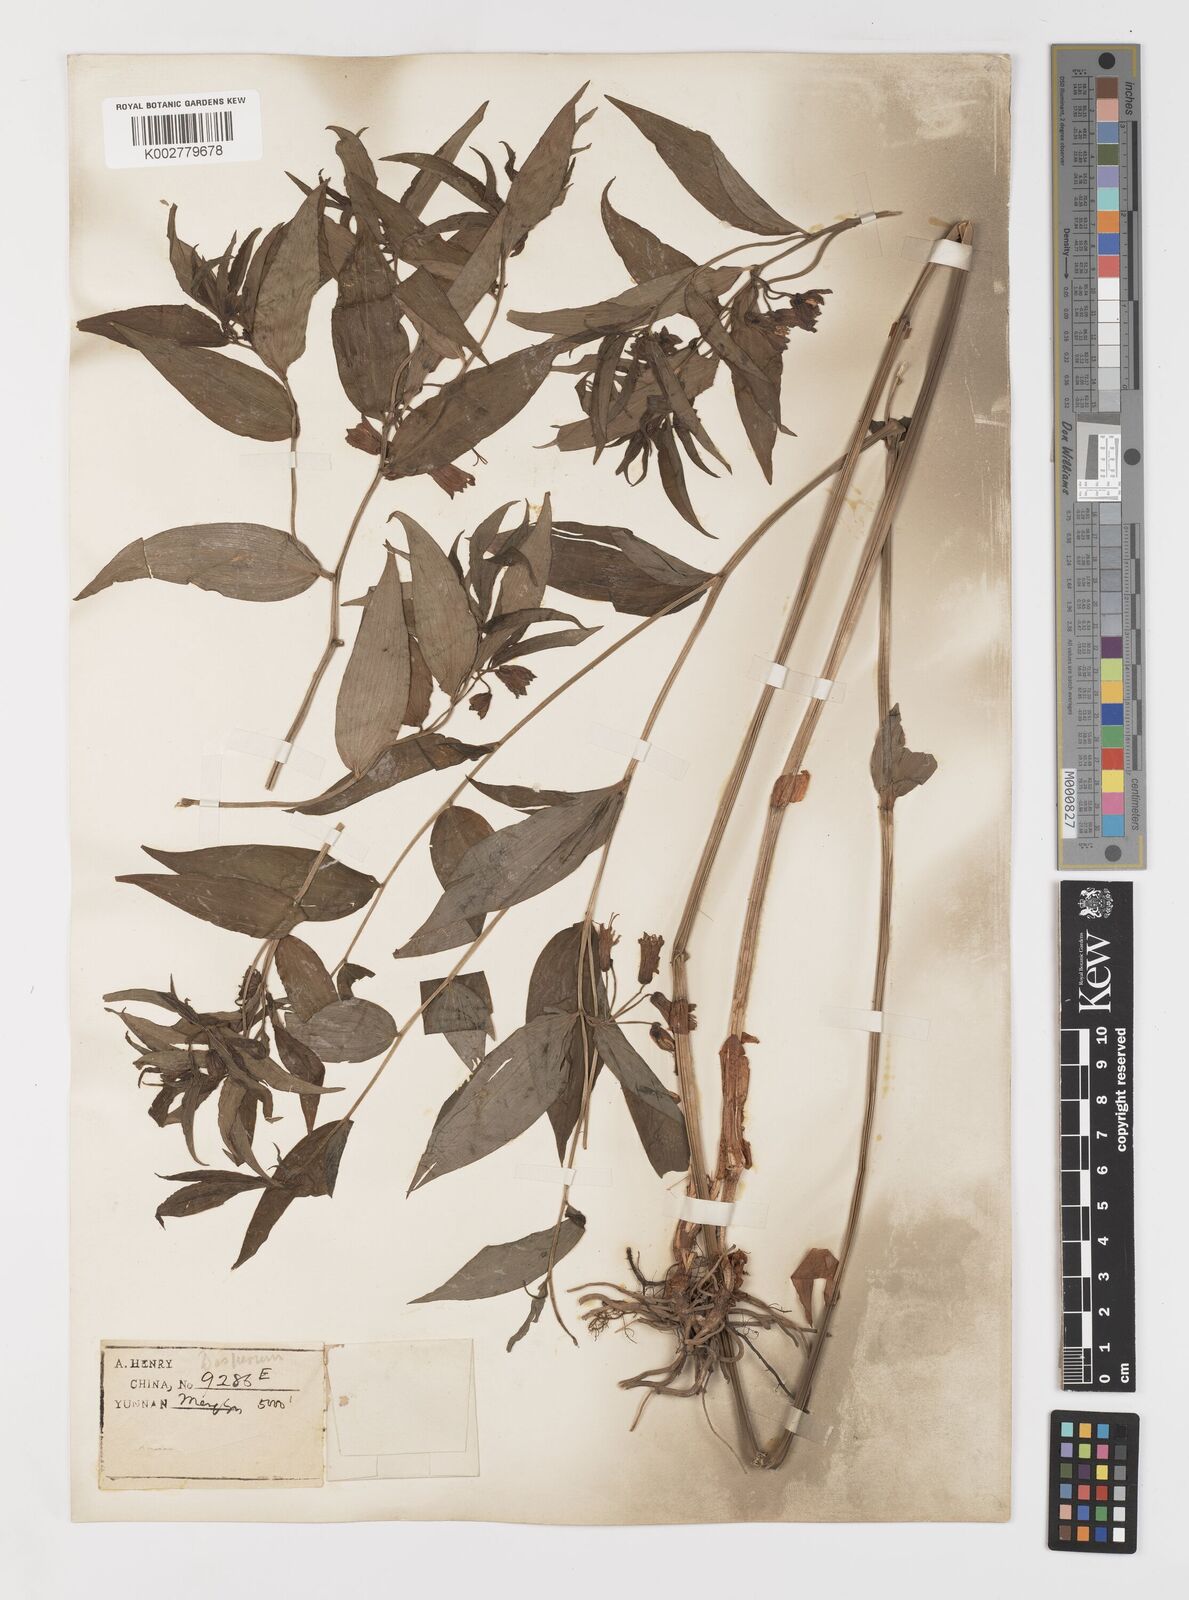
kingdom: Plantae
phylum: Tracheophyta
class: Liliopsida
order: Liliales
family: Colchicaceae
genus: Disporum
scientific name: Disporum cantoniense
